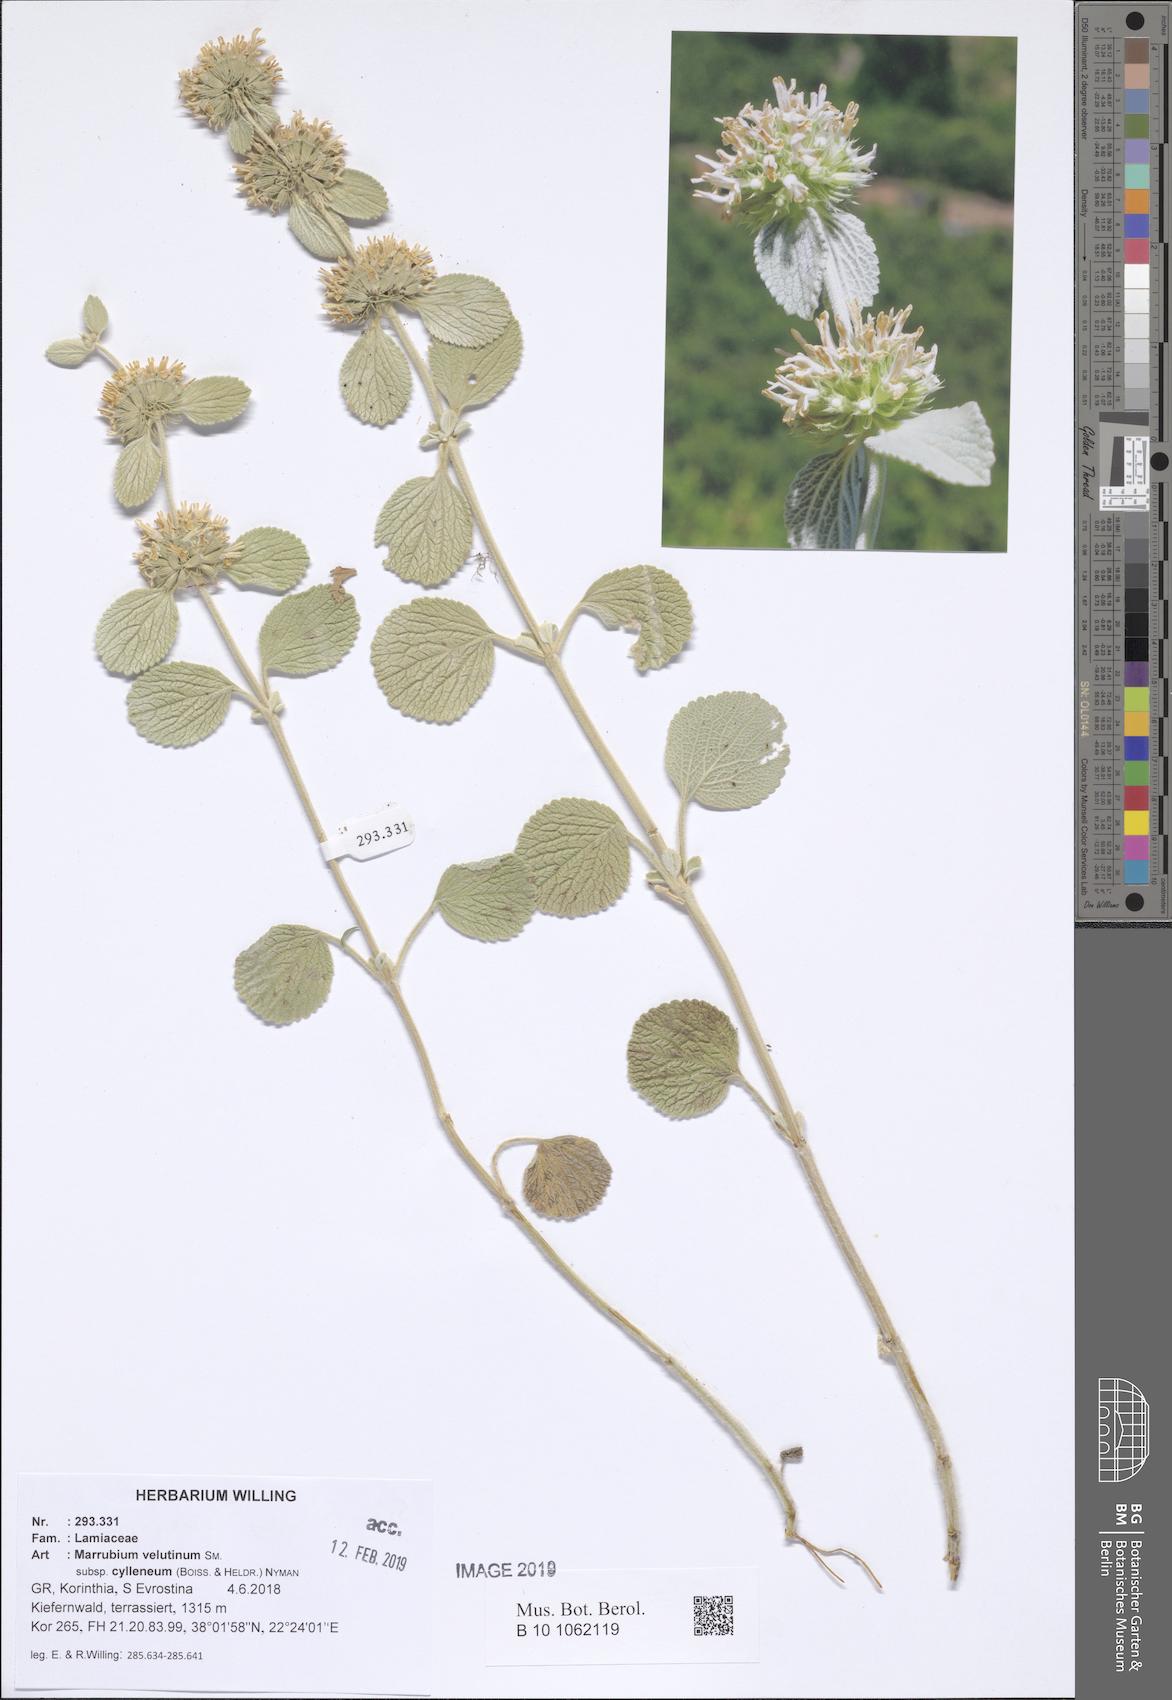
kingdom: Plantae
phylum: Tracheophyta
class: Magnoliopsida
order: Lamiales
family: Lamiaceae
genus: Marrubium
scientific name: Marrubium cylleneum
